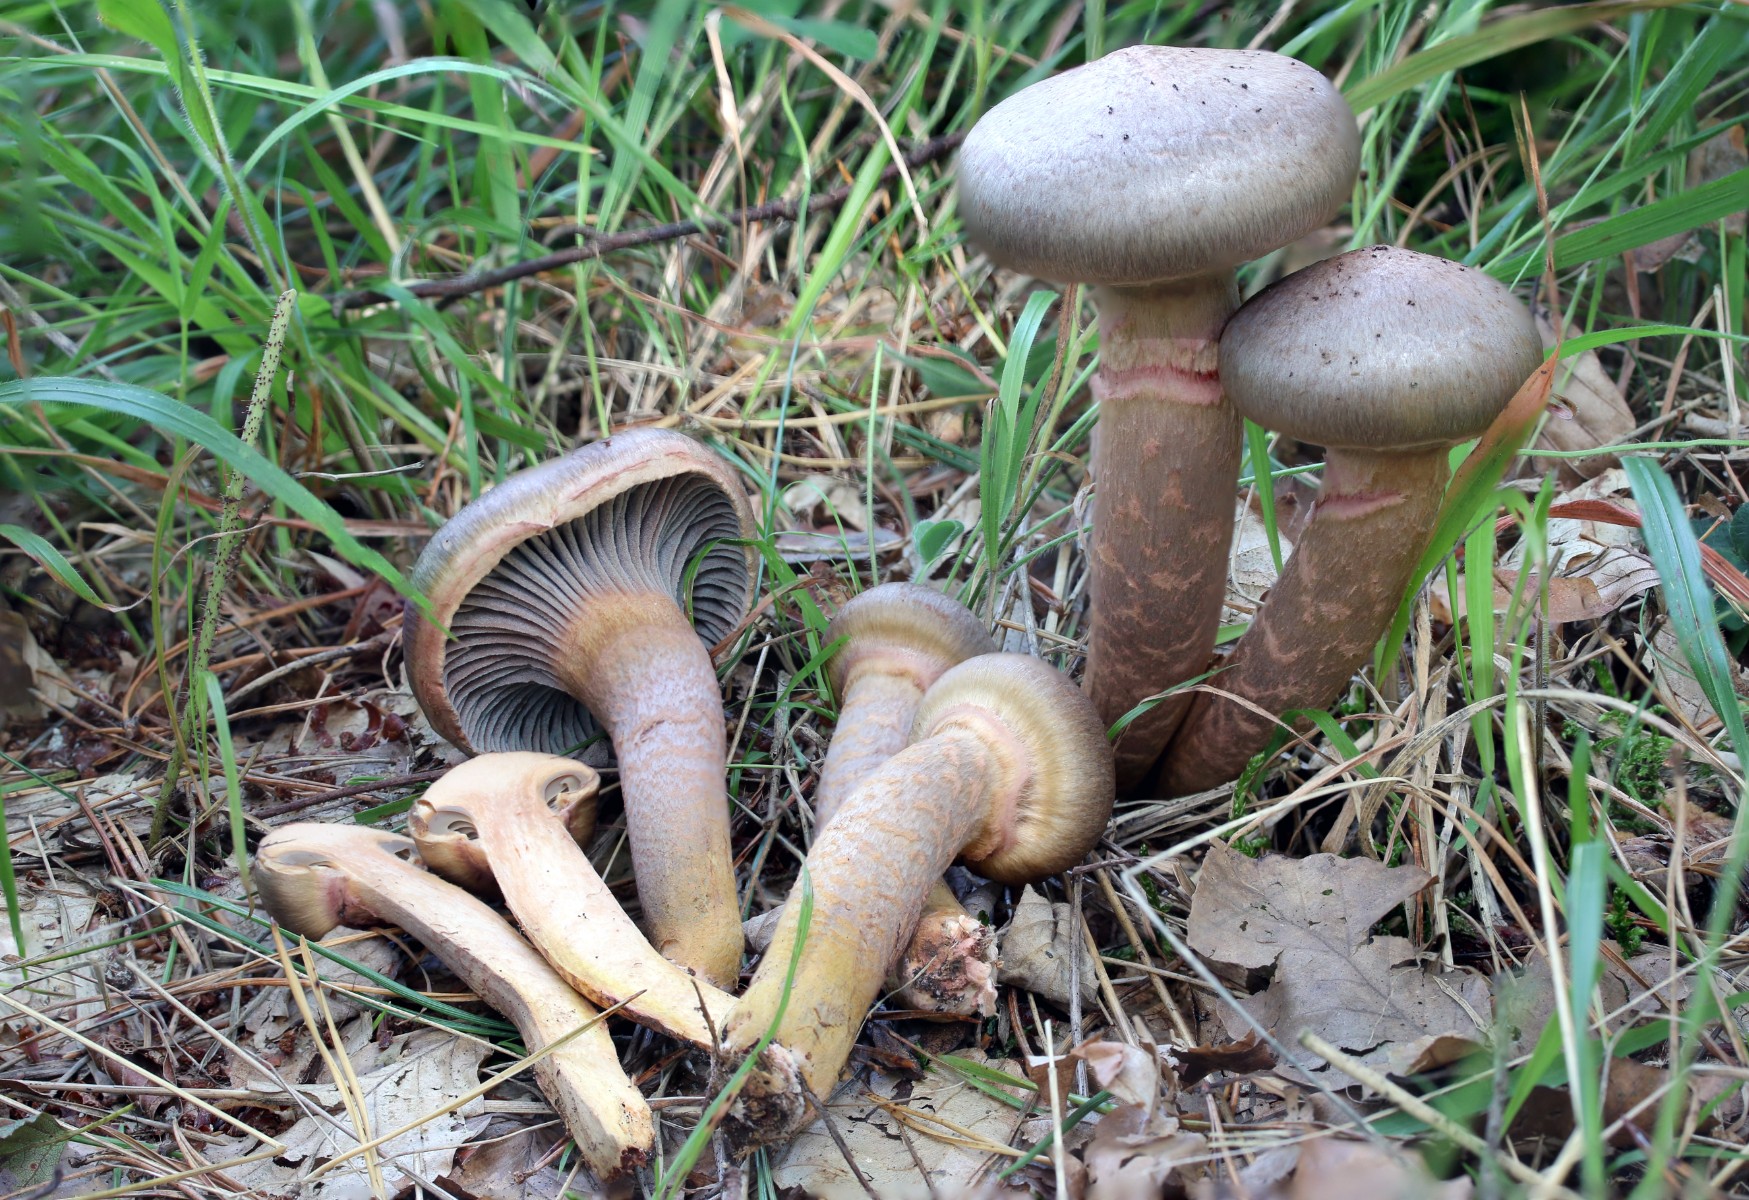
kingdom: Fungi
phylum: Basidiomycota
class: Agaricomycetes
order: Boletales
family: Gomphidiaceae
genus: Chroogomphus
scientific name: Chroogomphus rutilus
